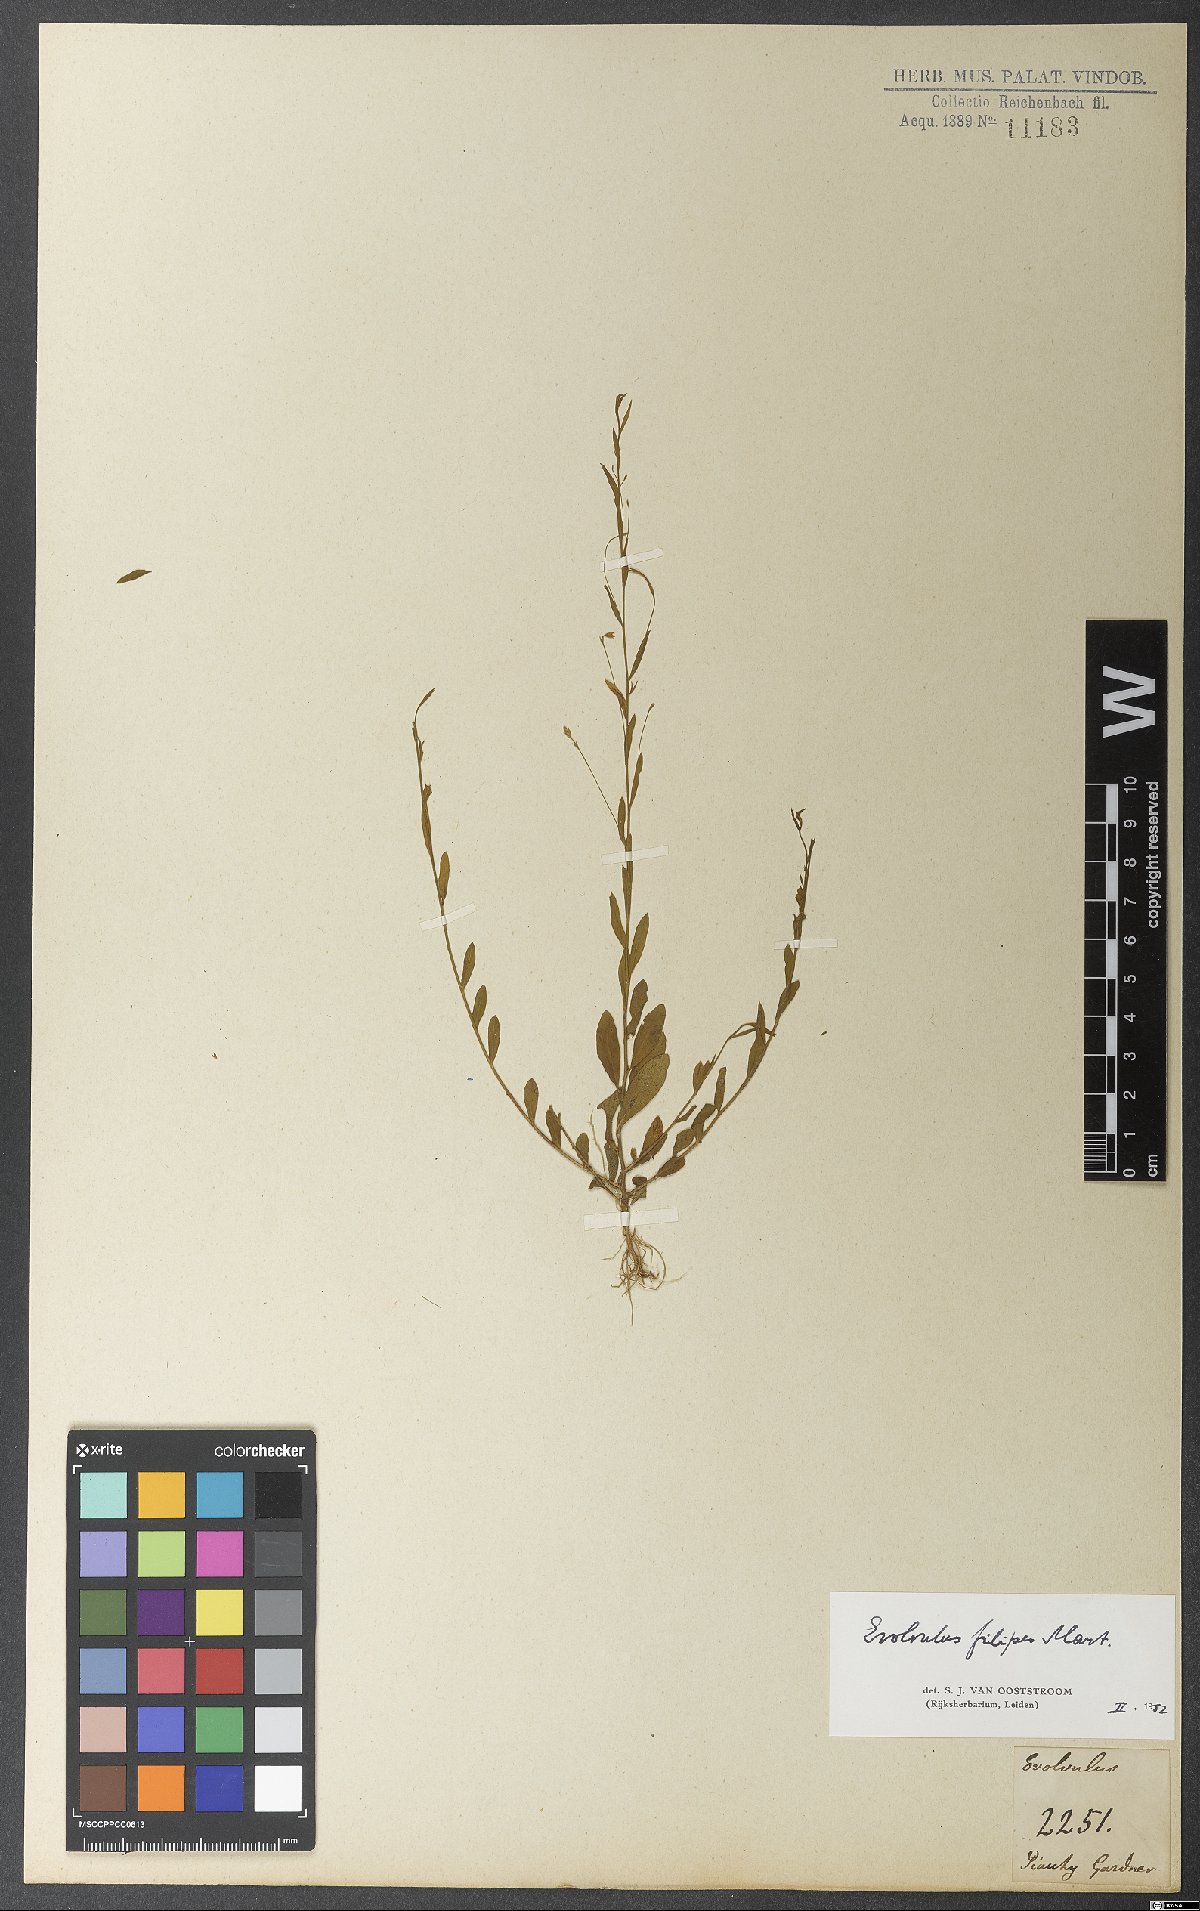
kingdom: Plantae
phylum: Tracheophyta
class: Magnoliopsida
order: Solanales
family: Convolvulaceae
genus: Evolvulus
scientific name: Evolvulus filipes
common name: Maryland dwarf morning-glory
